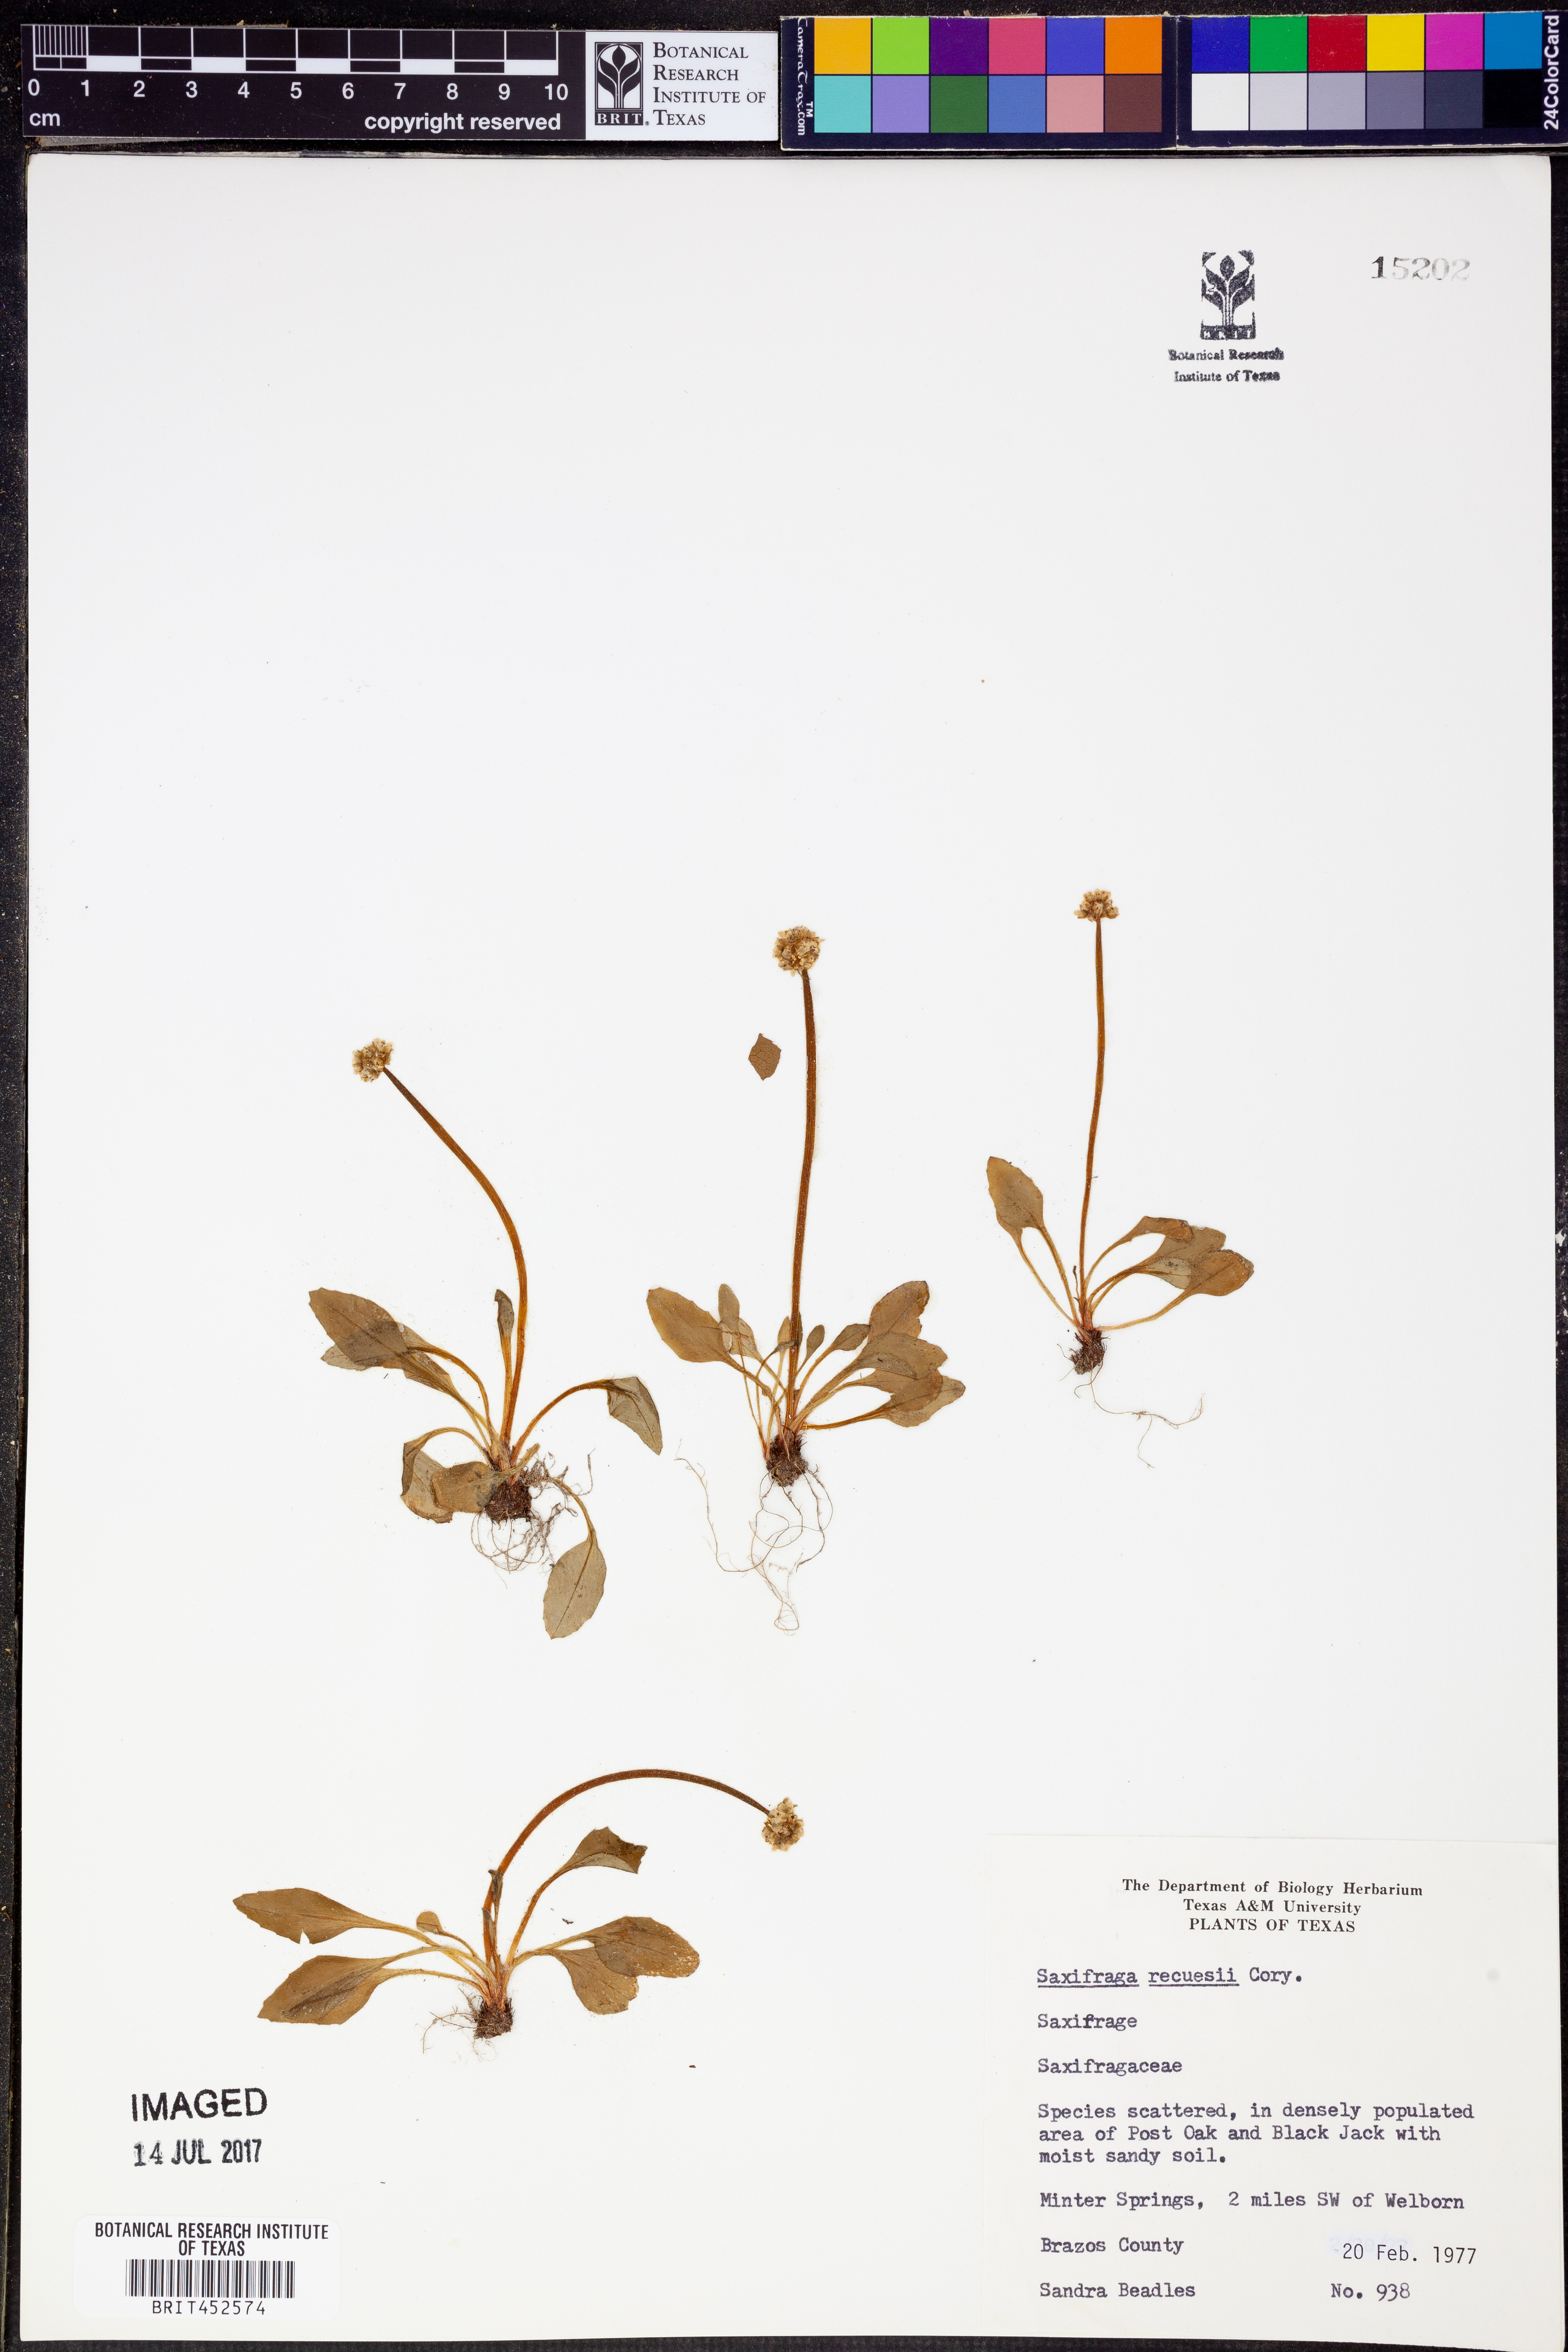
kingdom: Plantae
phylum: Tracheophyta
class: Magnoliopsida
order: Saxifragales
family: Saxifragaceae
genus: Micranthes
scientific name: Micranthes texana
